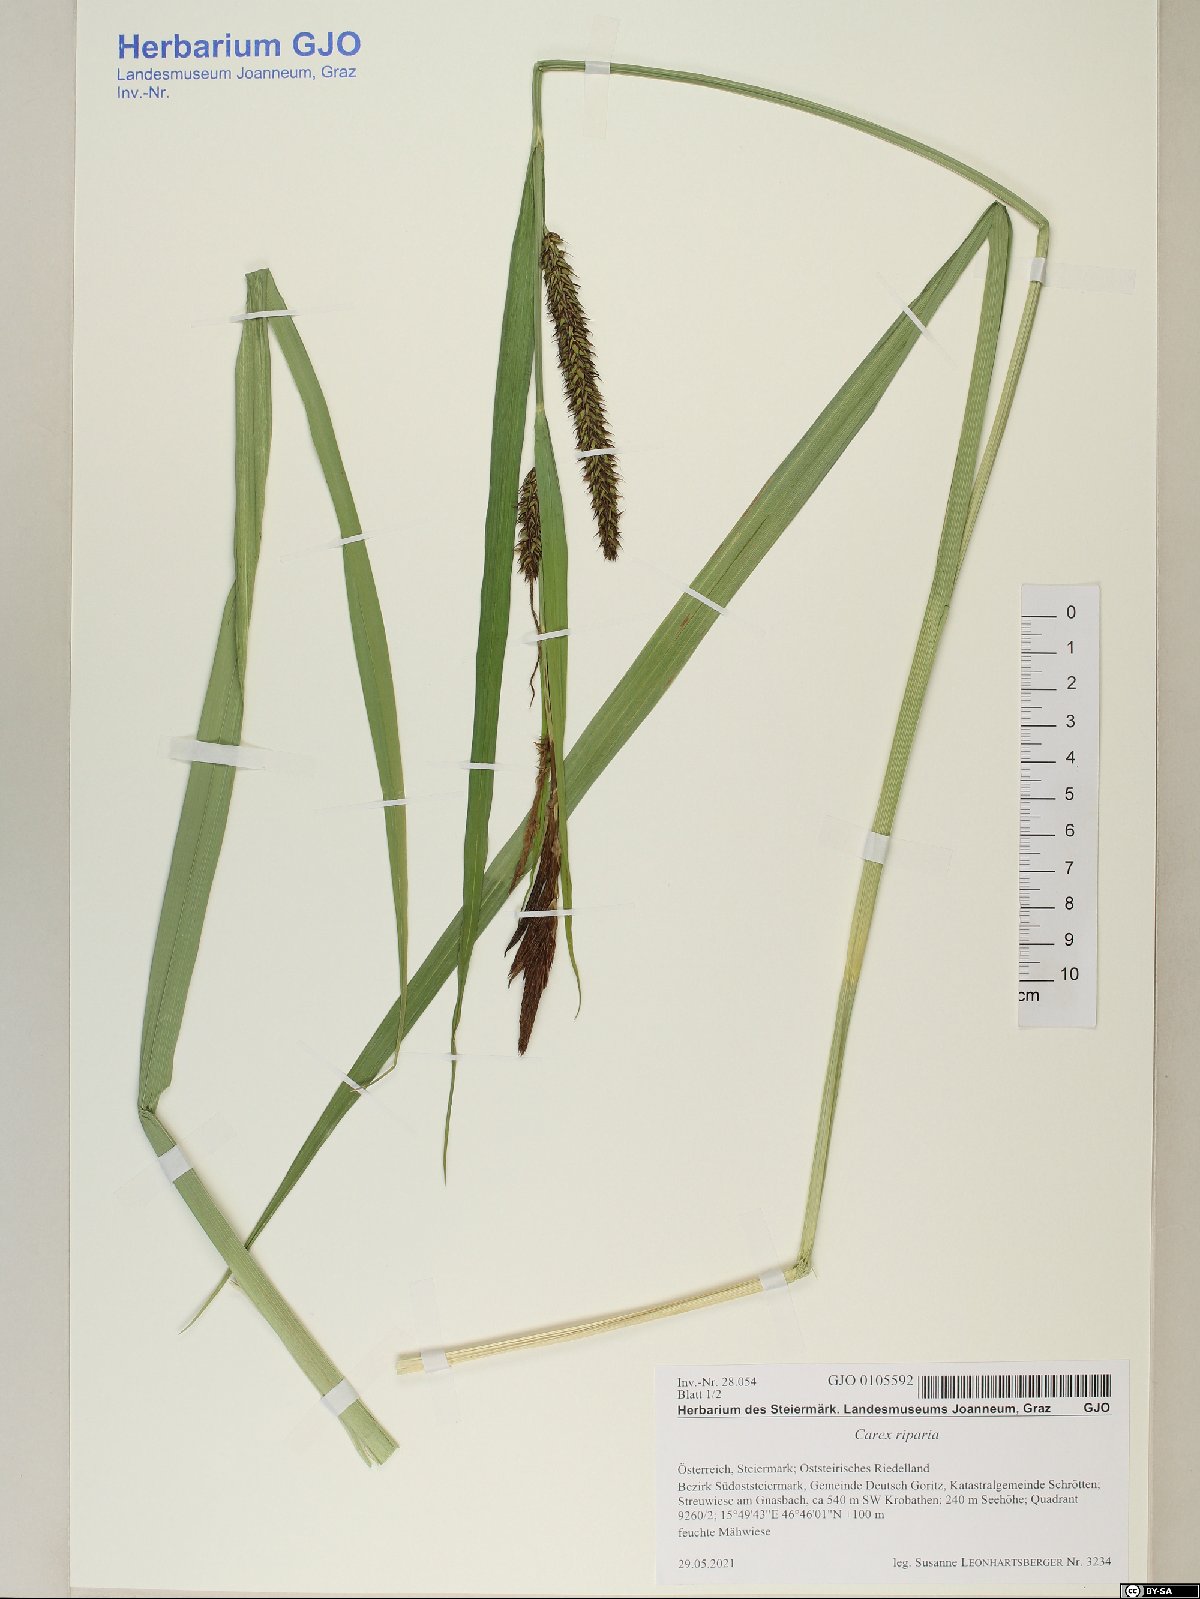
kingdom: Plantae
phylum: Tracheophyta
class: Liliopsida
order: Poales
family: Cyperaceae
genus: Carex
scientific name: Carex riparia
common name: Greater pond-sedge
